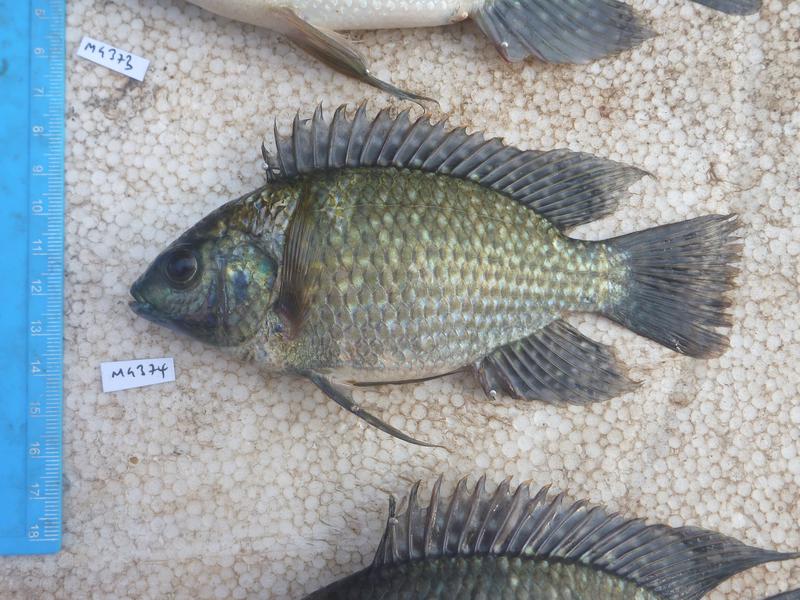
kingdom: Animalia
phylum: Chordata
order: Perciformes
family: Cichlidae
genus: Oreochromis
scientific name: Oreochromis leucostictus
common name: Blue spotted tilapia
